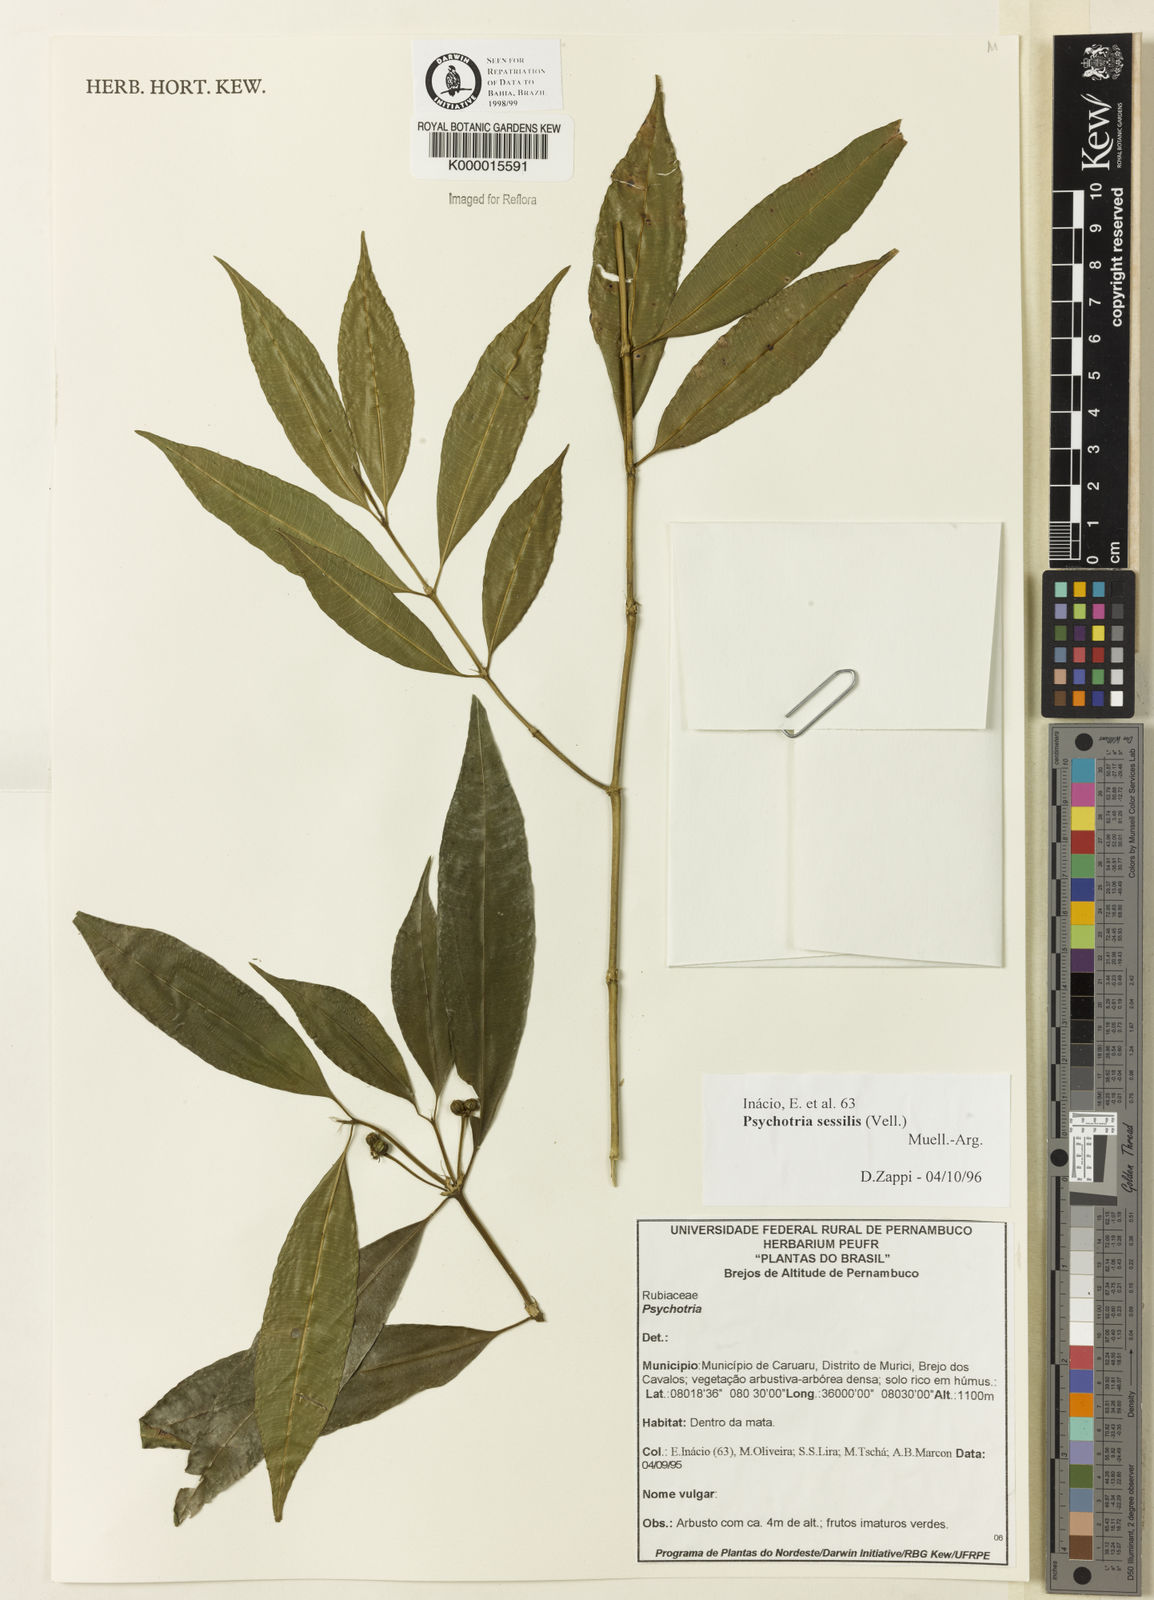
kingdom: Plantae
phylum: Tracheophyta
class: Magnoliopsida
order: Gentianales
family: Rubiaceae
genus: Psychotria
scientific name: Psychotria
